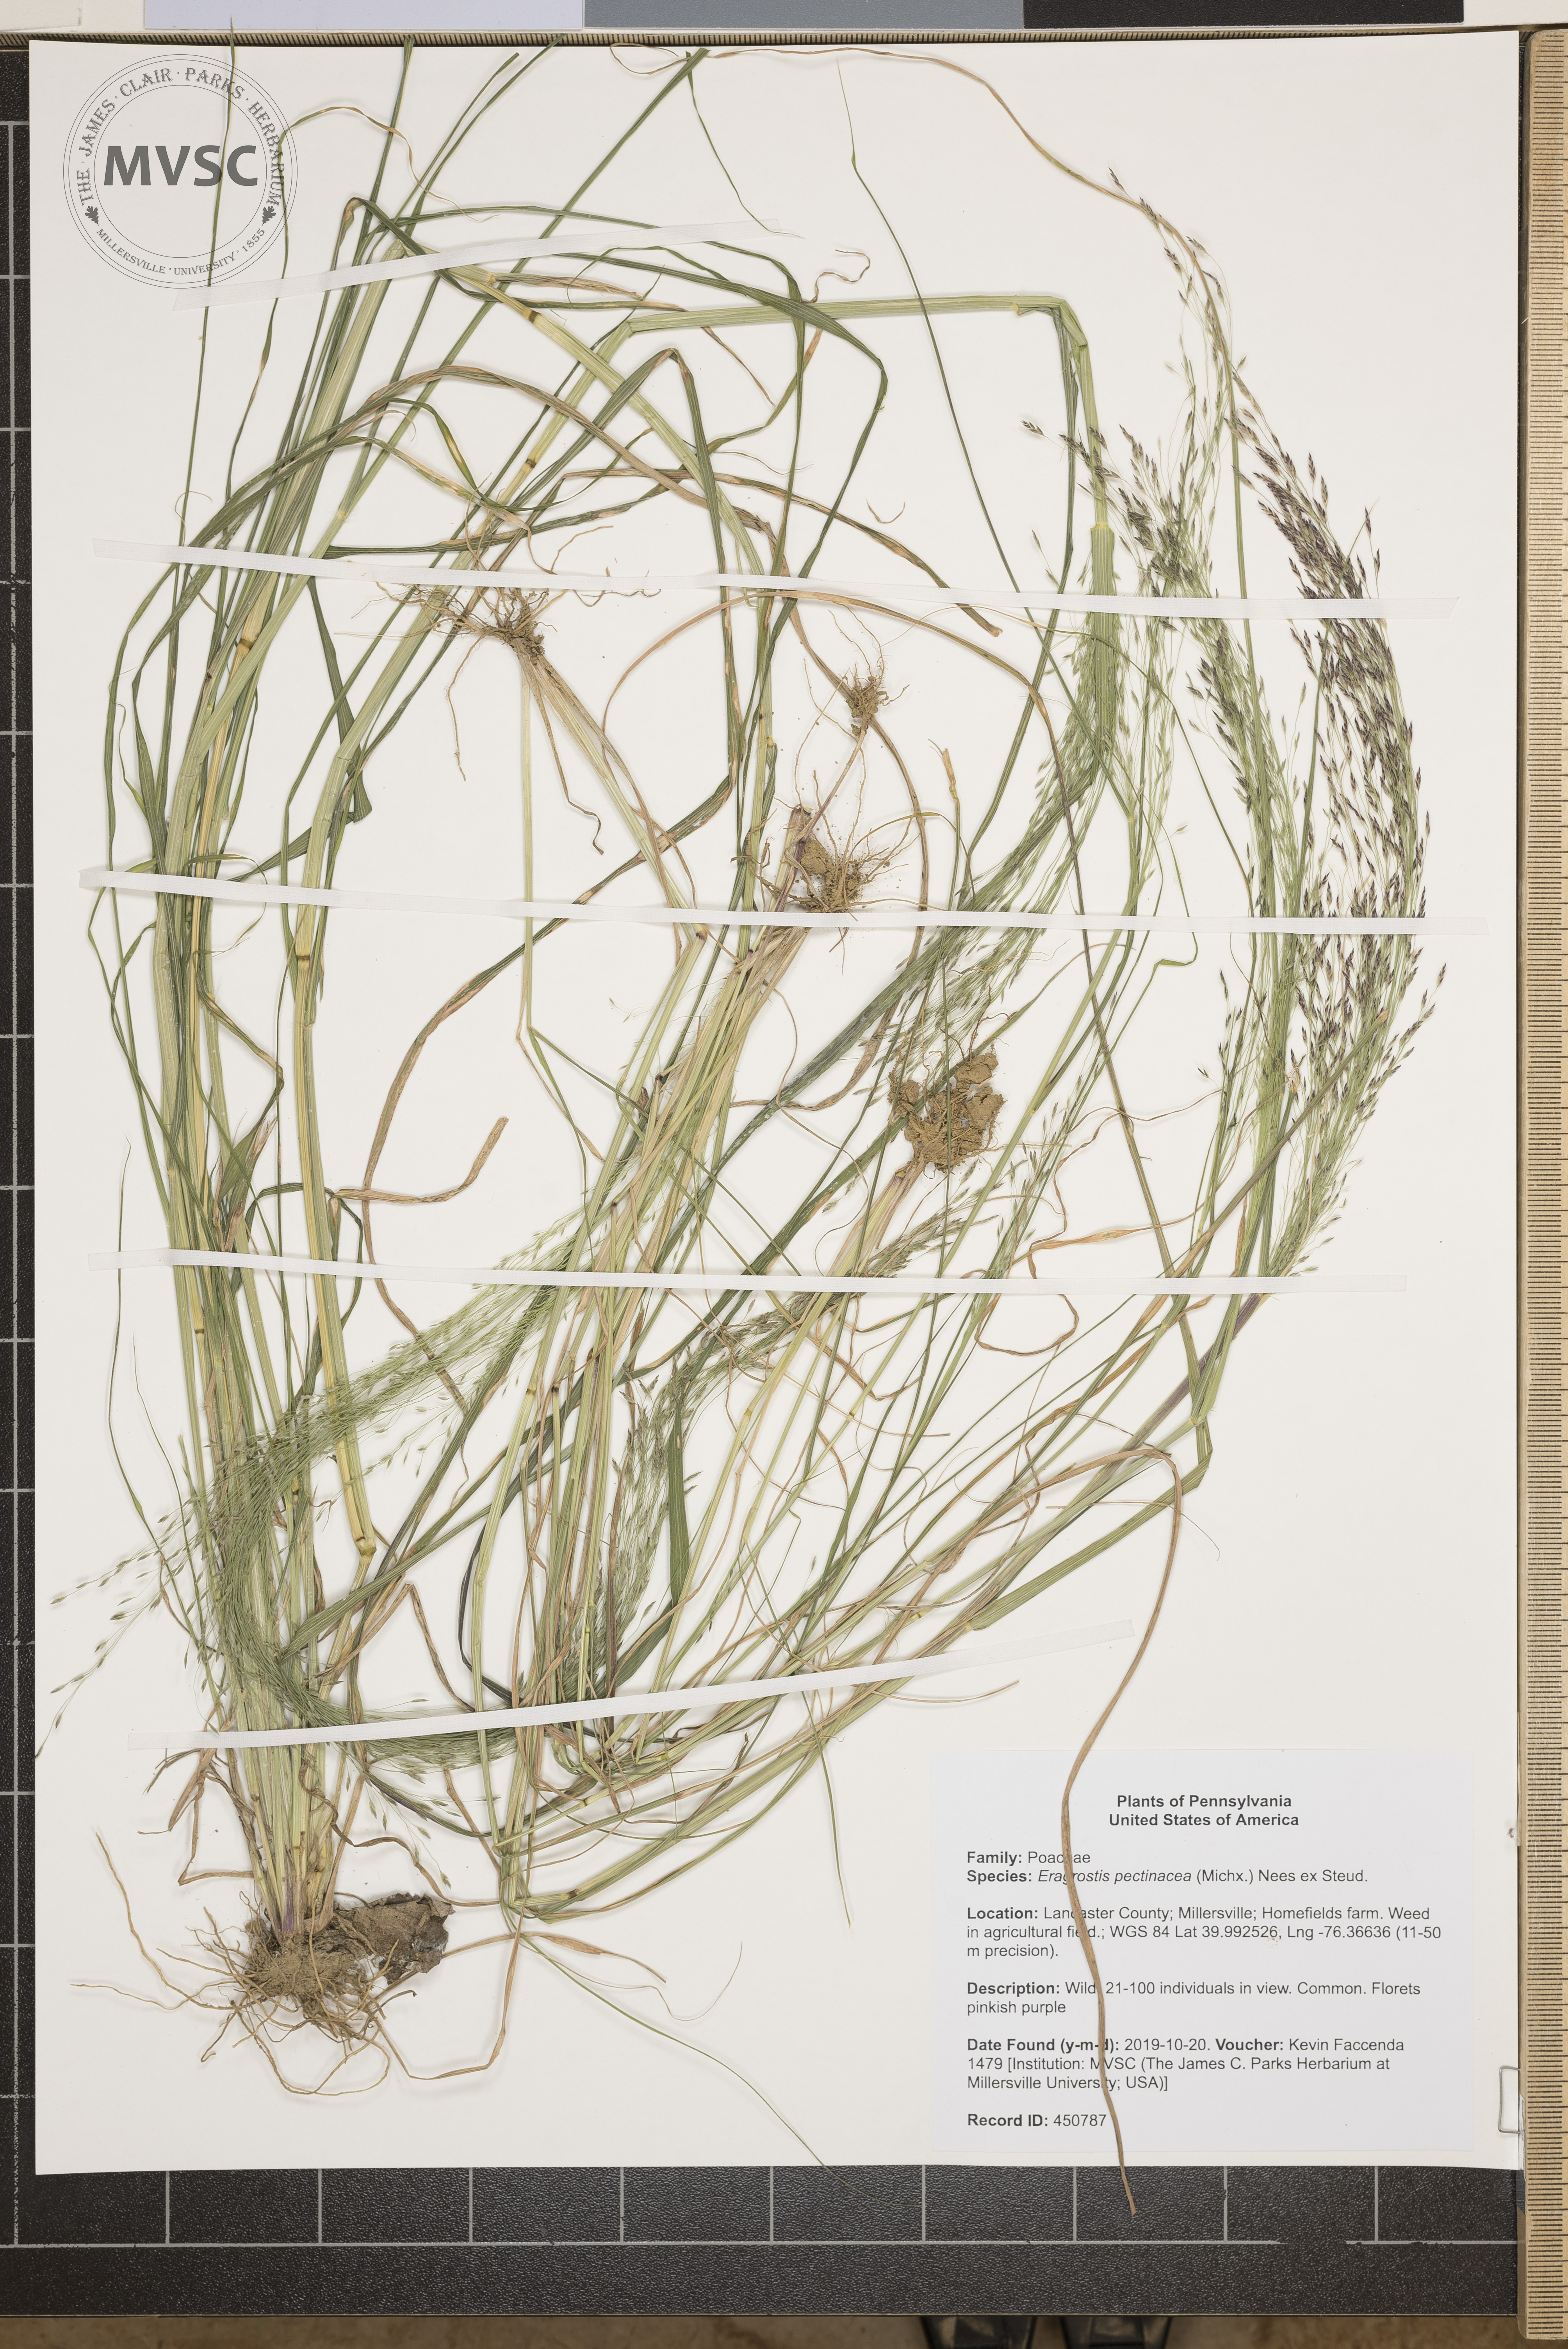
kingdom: Plantae
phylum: Tracheophyta
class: Liliopsida
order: Poales
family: Poaceae
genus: Eragrostis
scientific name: Eragrostis pectinacea
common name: Tufted lovegrass
